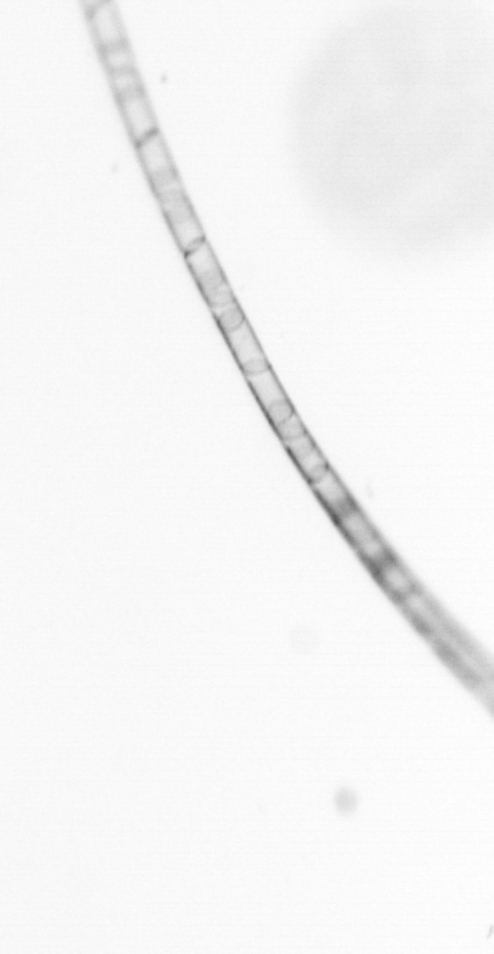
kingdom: Chromista
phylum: Ochrophyta
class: Bacillariophyceae
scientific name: Bacillariophyceae
